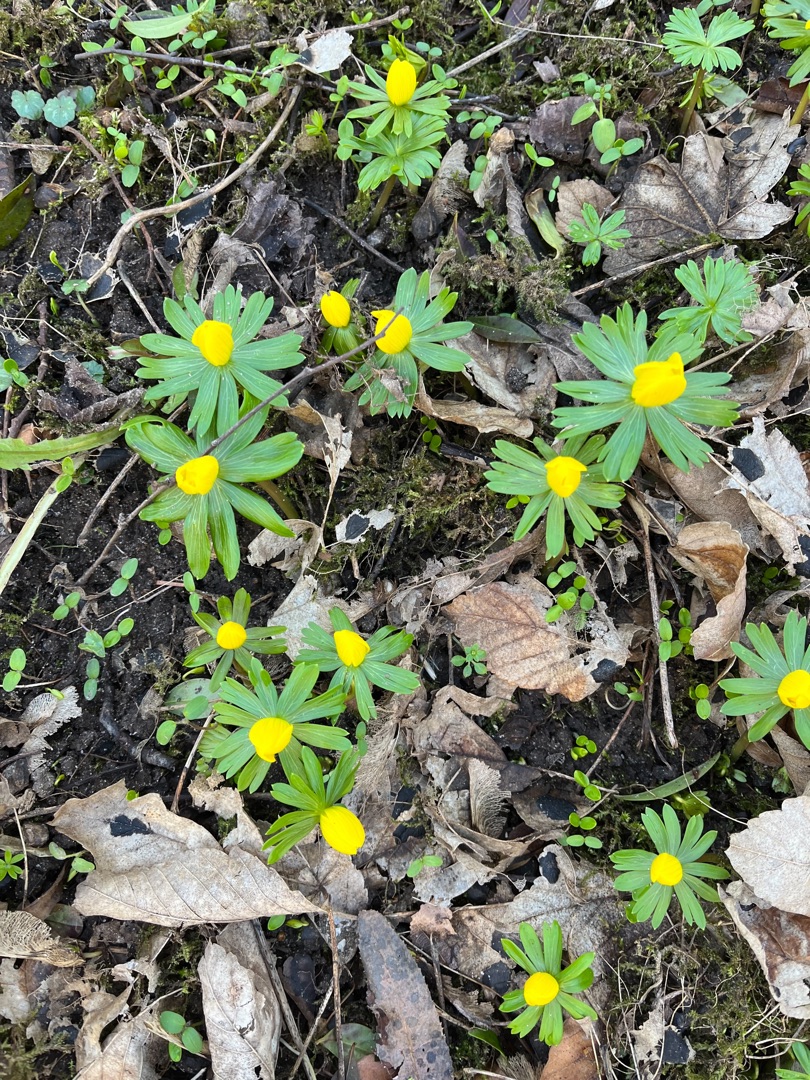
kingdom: Plantae
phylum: Tracheophyta
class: Magnoliopsida
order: Ranunculales
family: Ranunculaceae
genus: Eranthis
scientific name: Eranthis hyemalis
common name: Erantis
